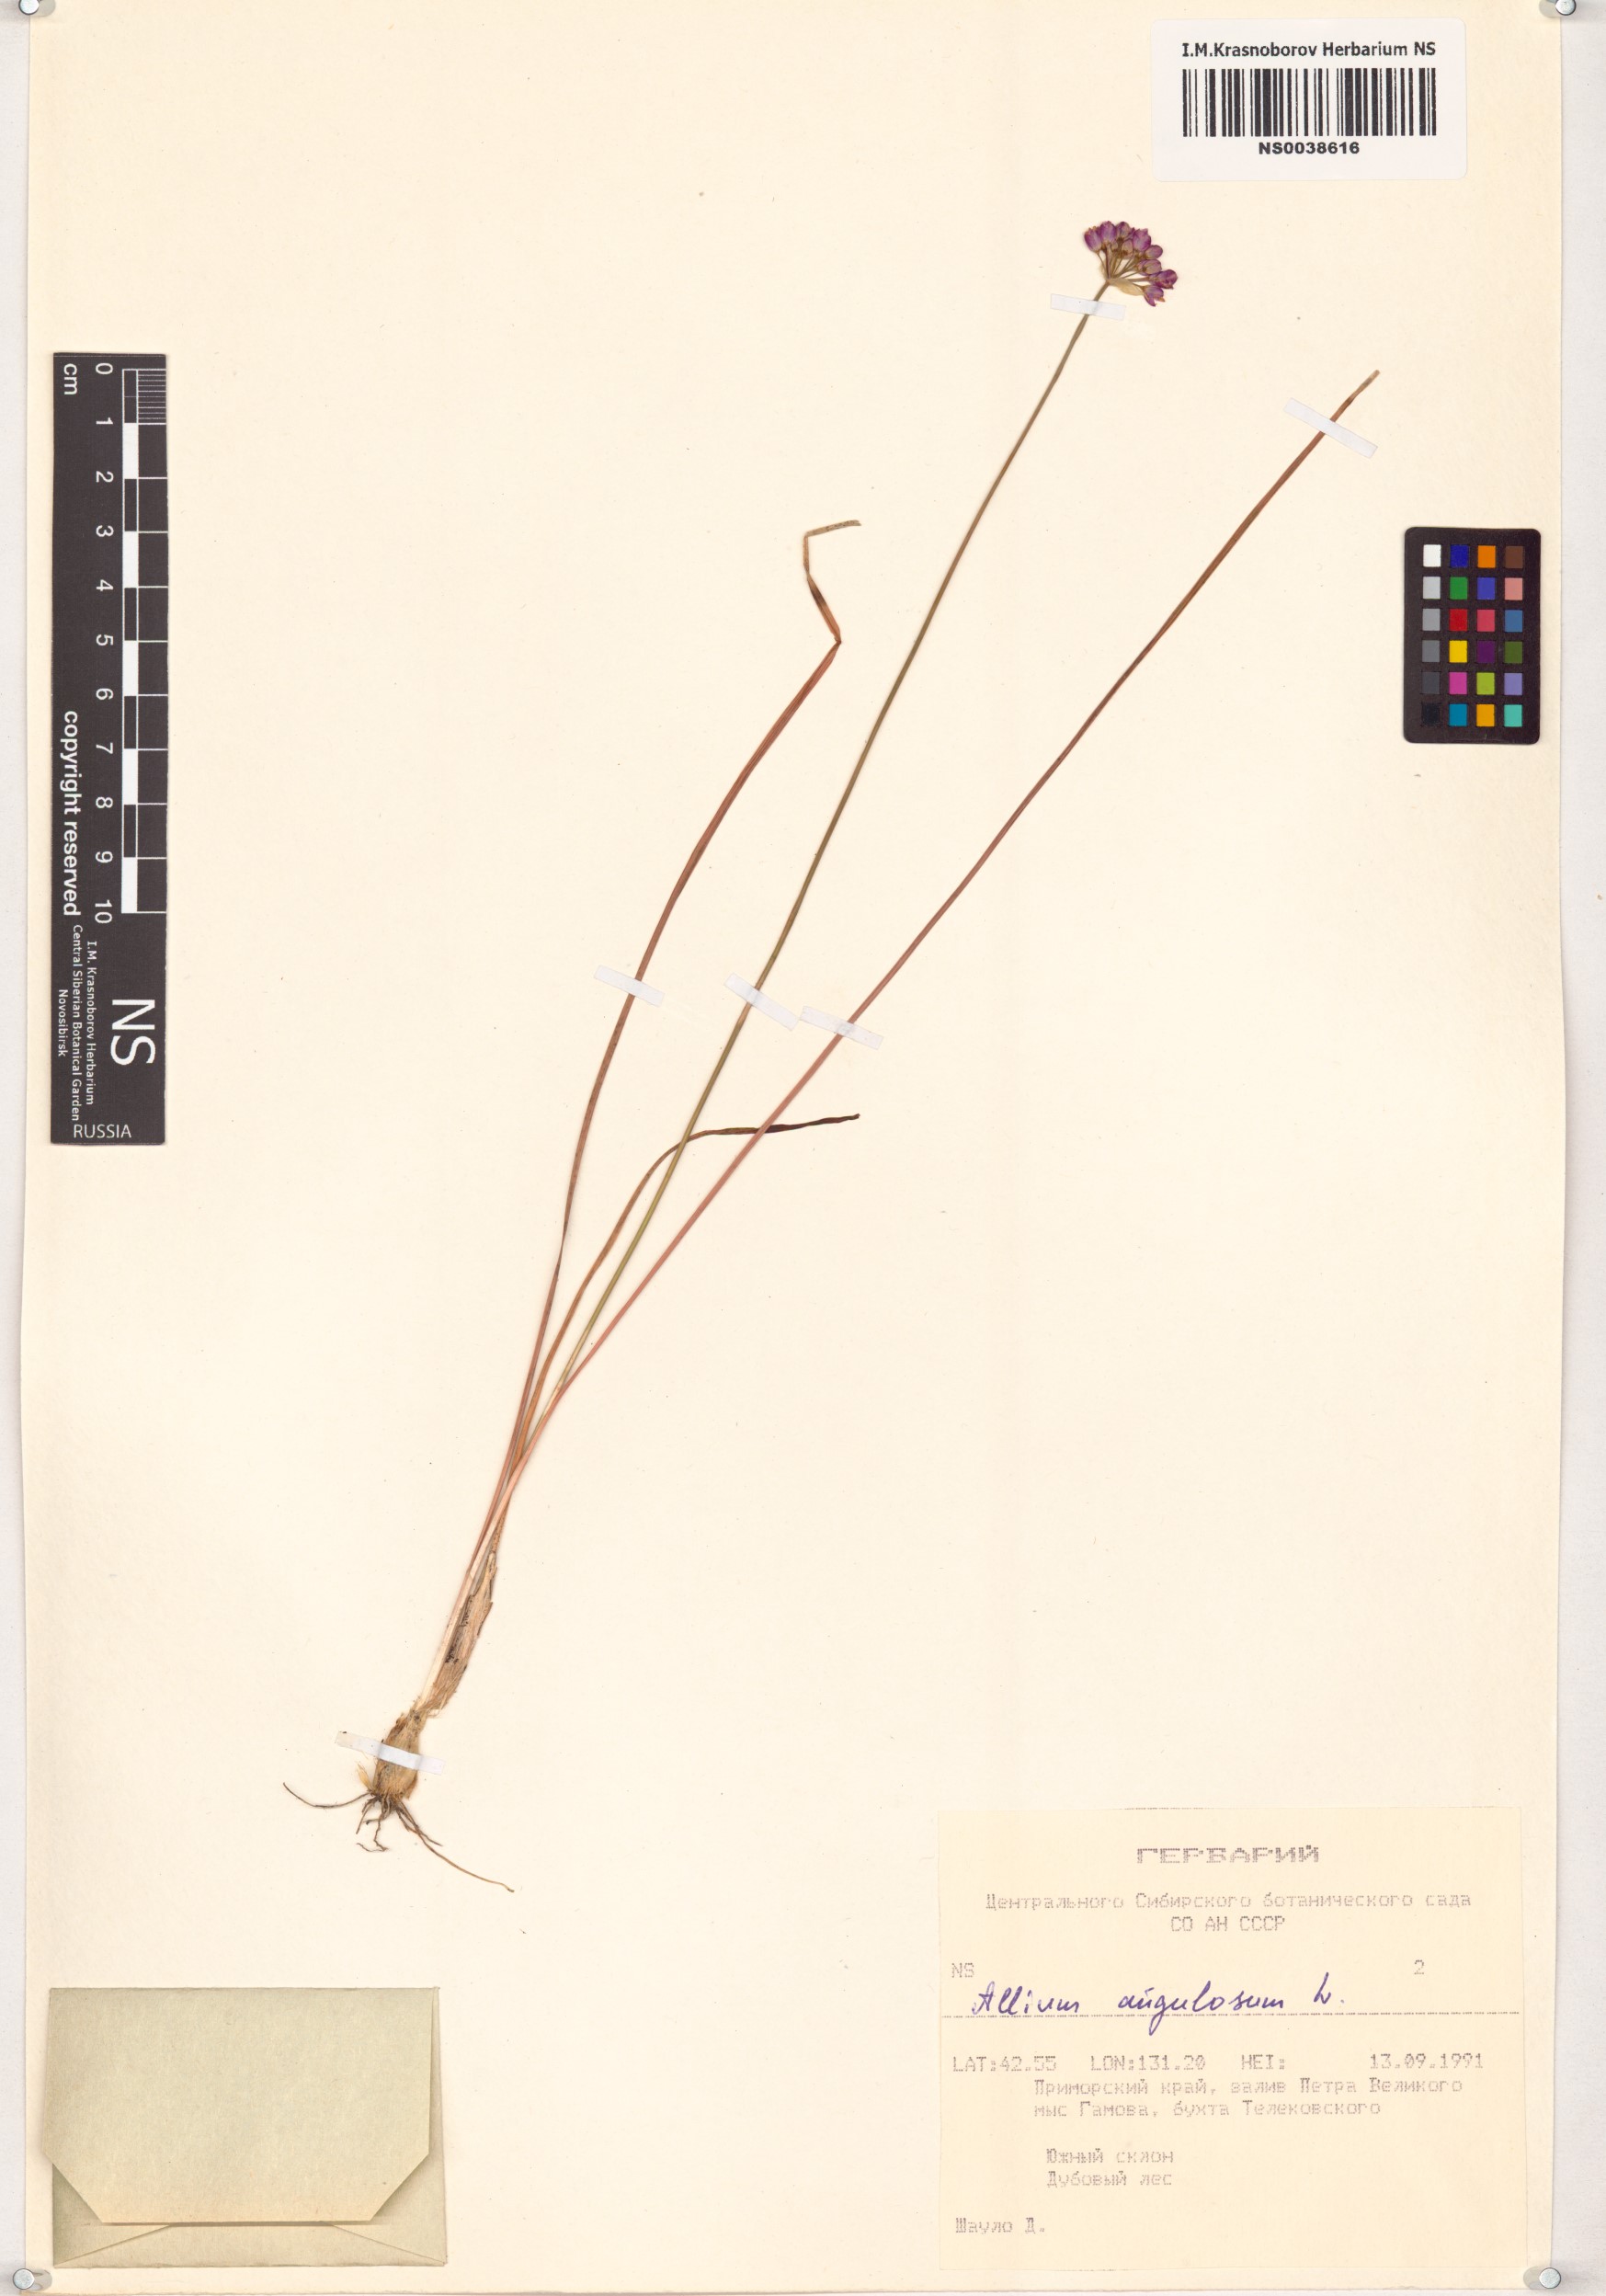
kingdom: Plantae
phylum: Tracheophyta
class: Liliopsida
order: Asparagales
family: Amaryllidaceae
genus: Allium
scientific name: Allium angulosum
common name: Mouse garlic
